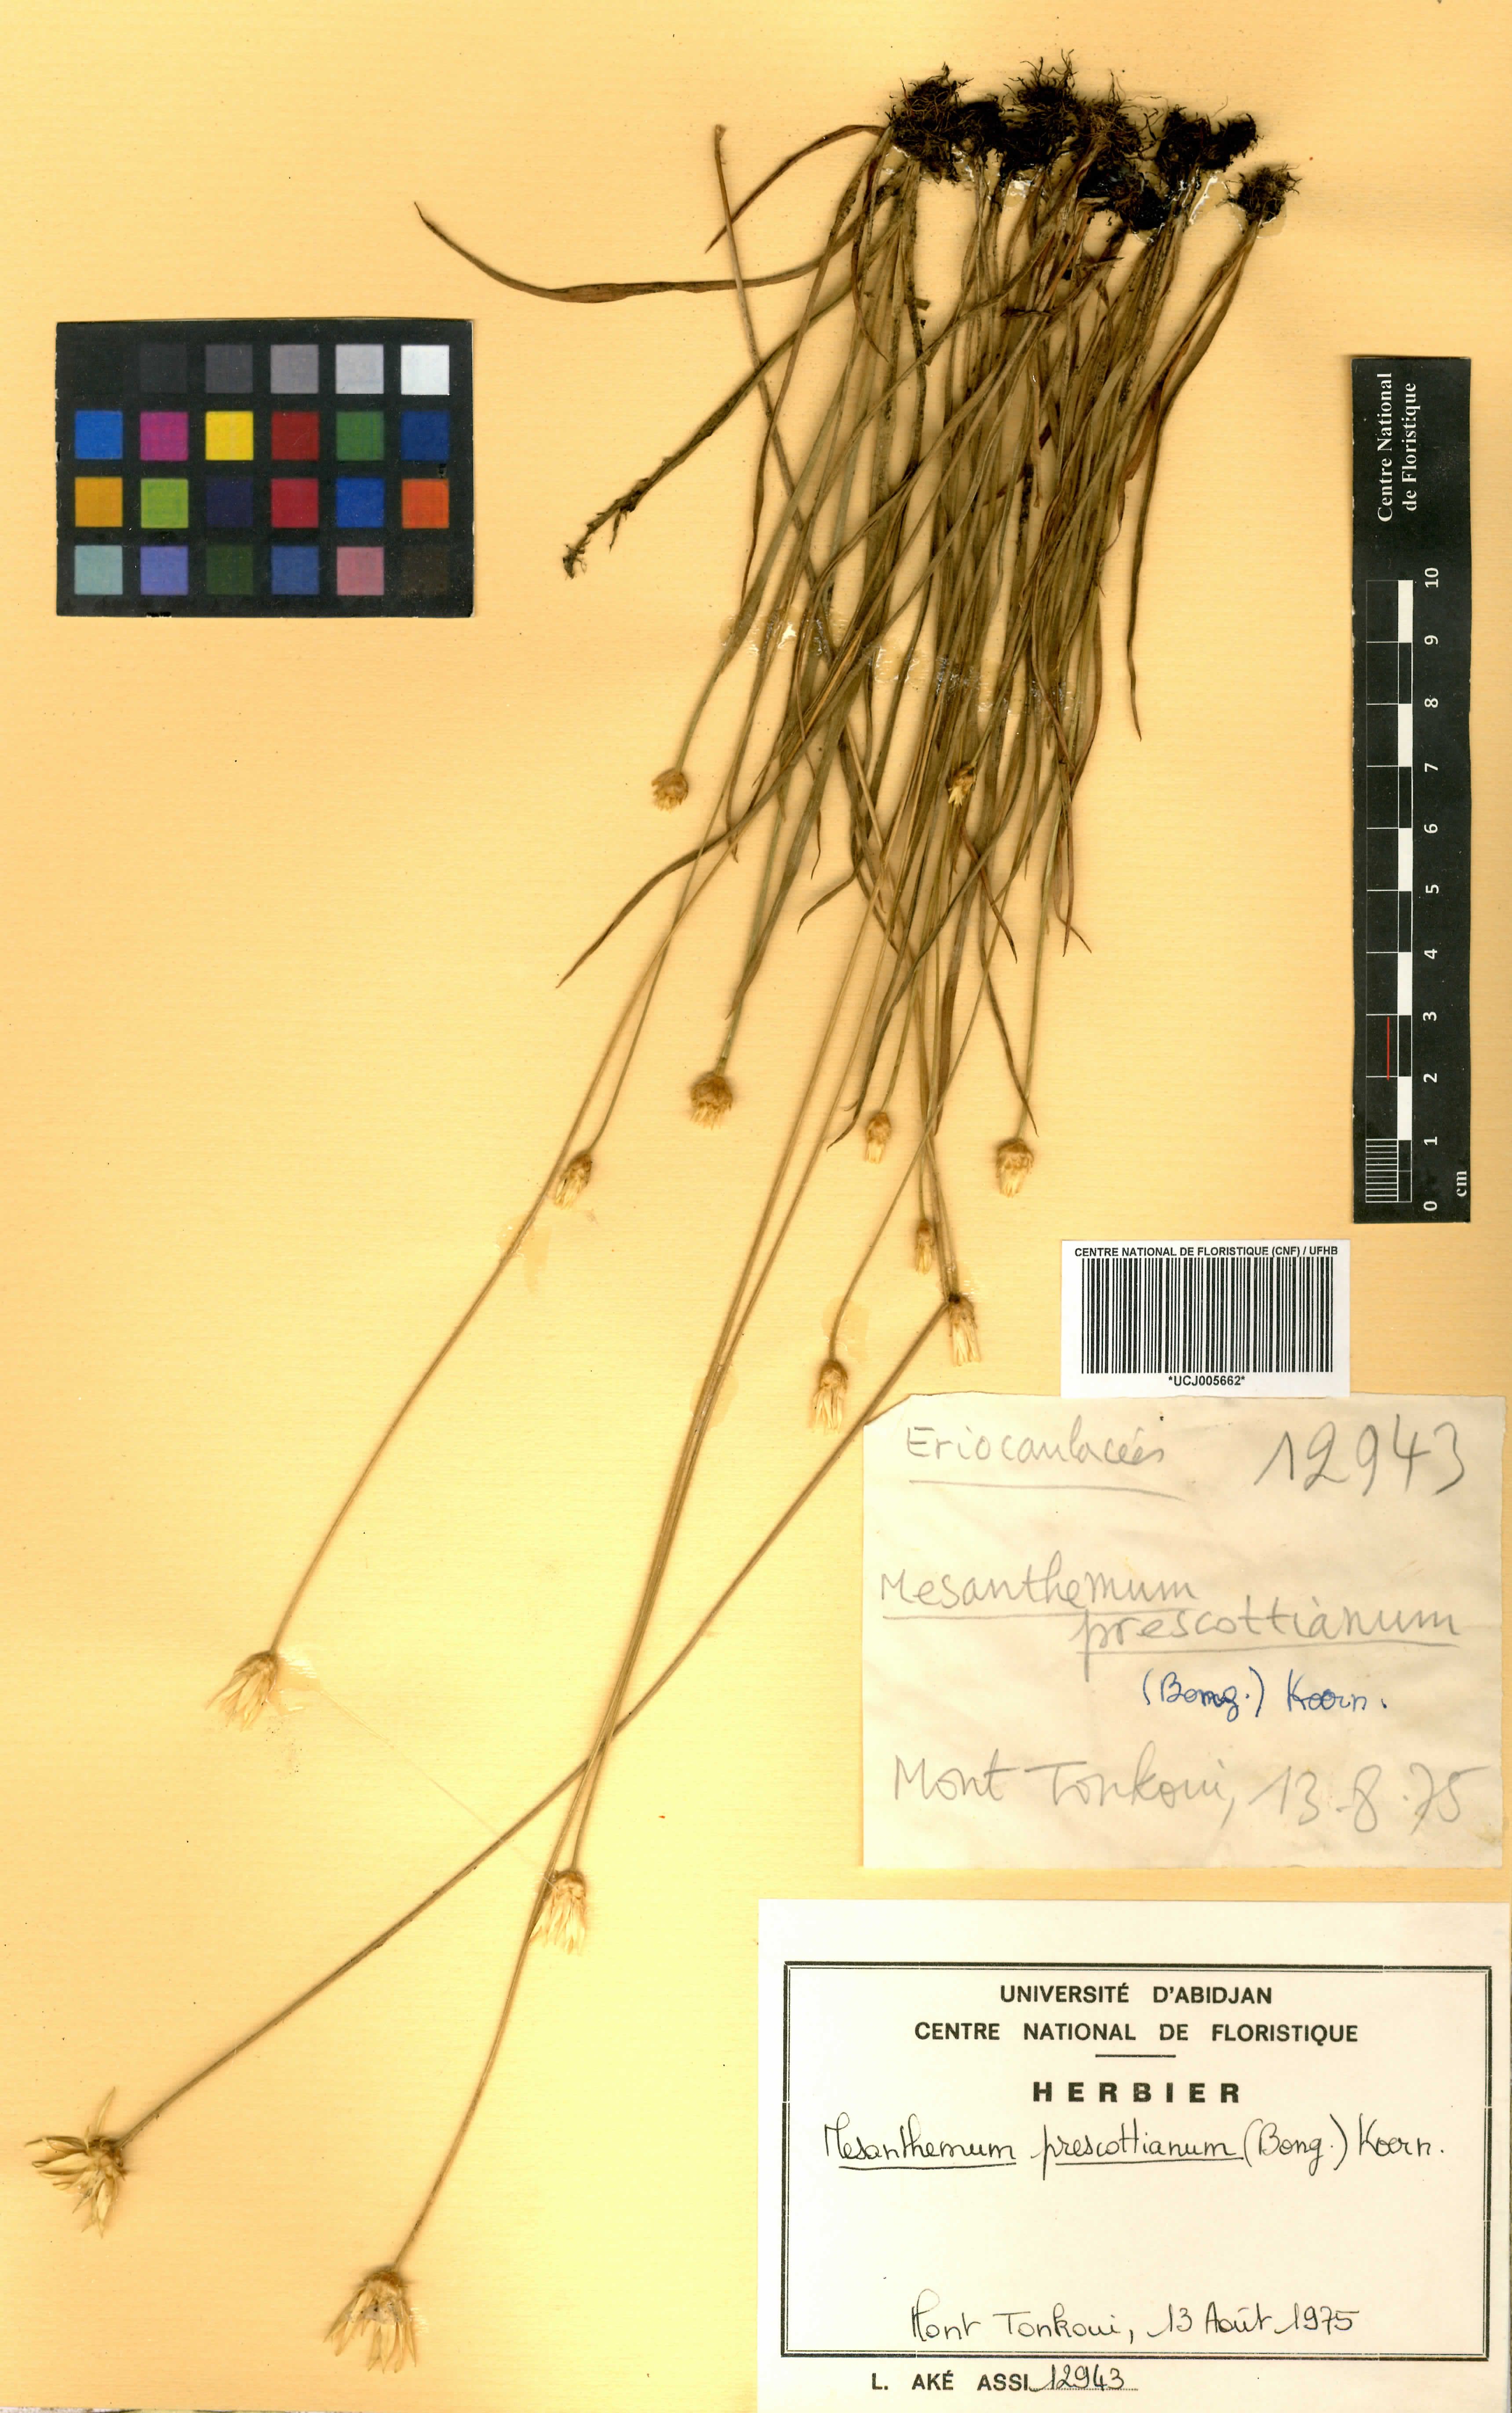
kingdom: Plantae
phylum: Tracheophyta
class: Liliopsida
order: Poales
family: Eriocaulaceae
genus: Mesanthemum
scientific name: Mesanthemum prescottianum
